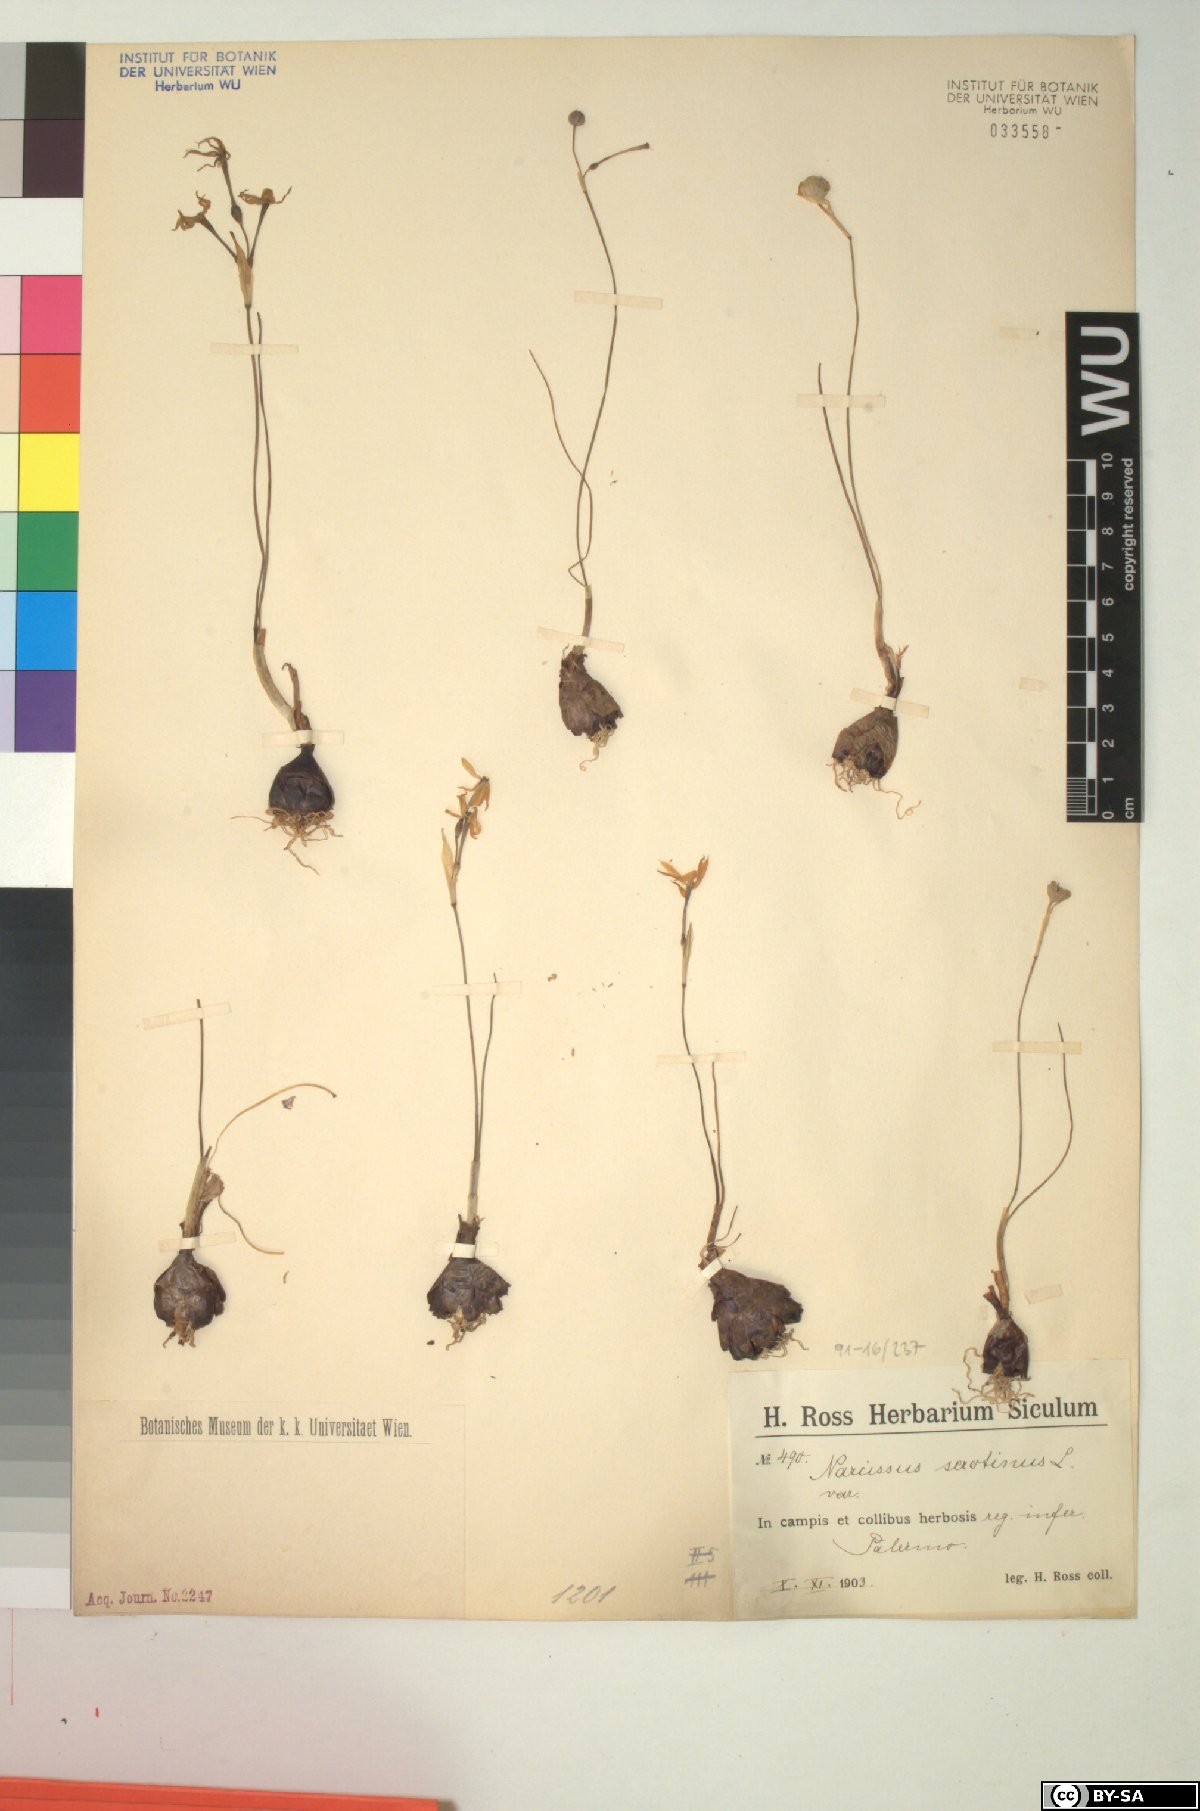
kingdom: Plantae
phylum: Tracheophyta
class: Liliopsida
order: Asparagales
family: Amaryllidaceae
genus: Narcissus
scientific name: Narcissus serotinus
